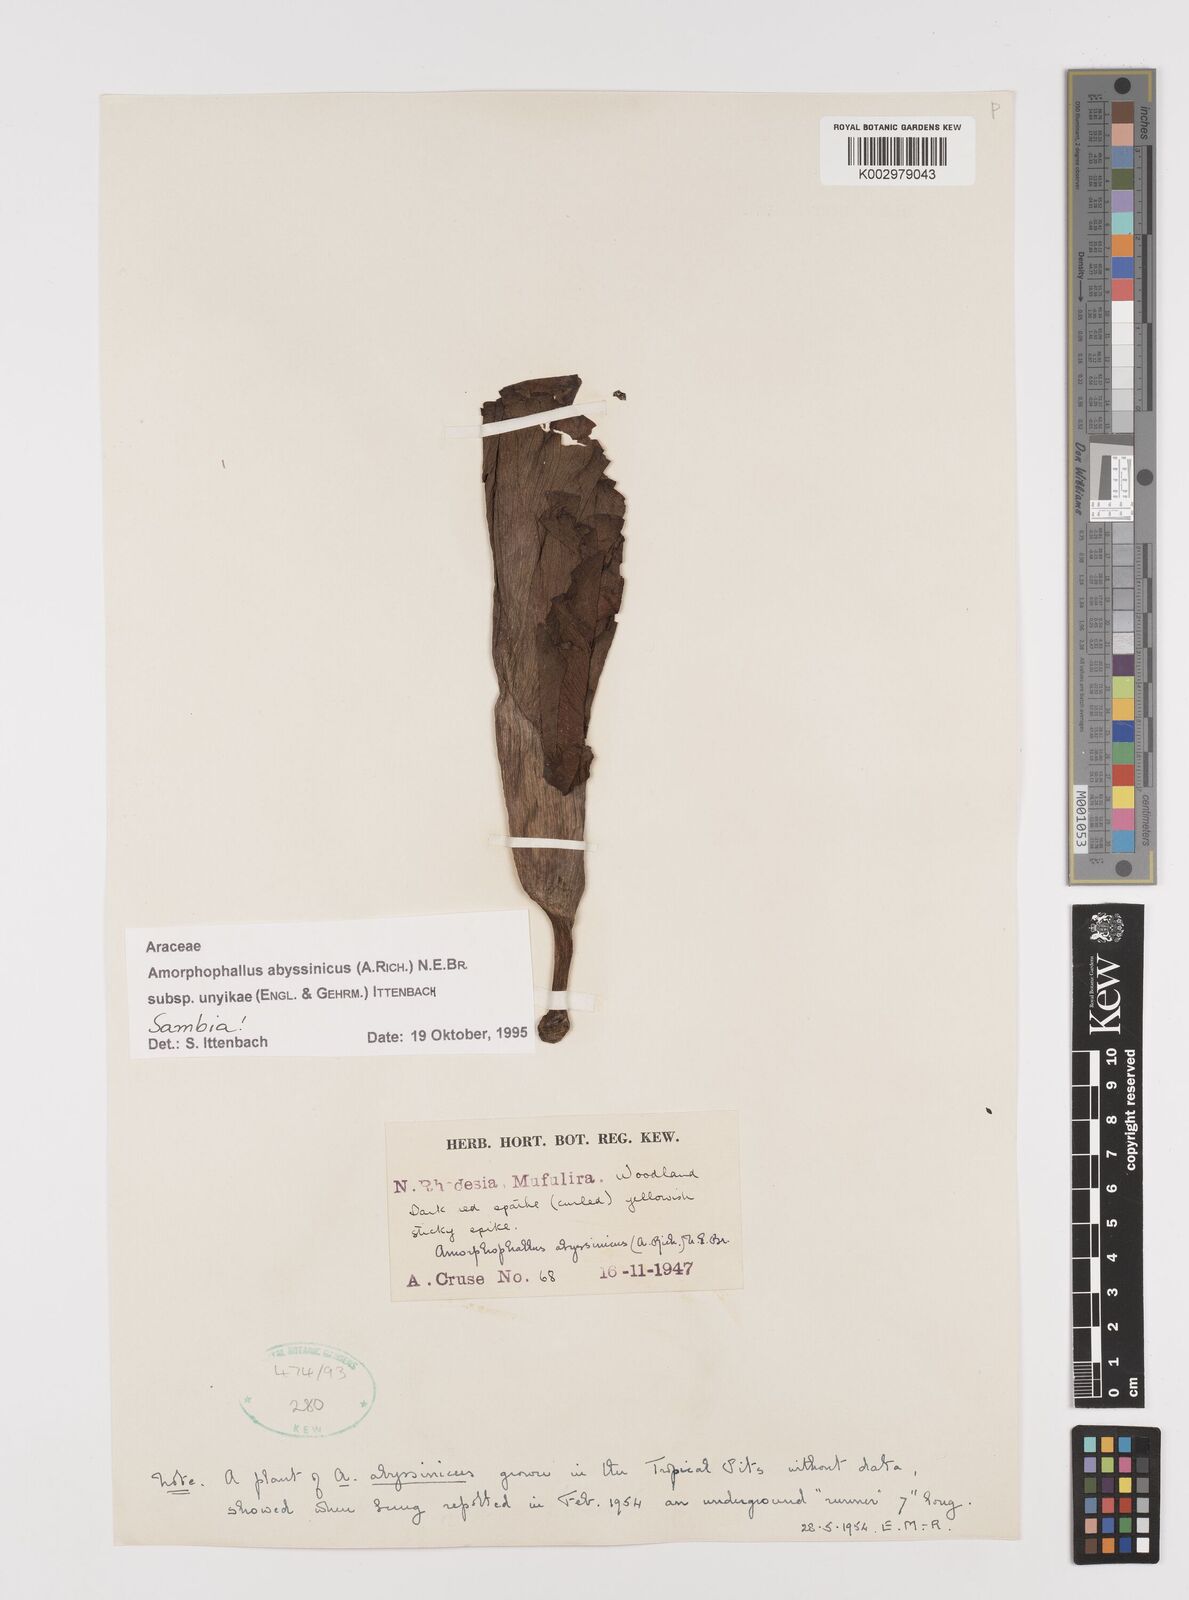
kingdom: Plantae
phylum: Tracheophyta
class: Liliopsida
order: Alismatales
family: Araceae
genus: Amorphophallus
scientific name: Amorphophallus abyssinicus
